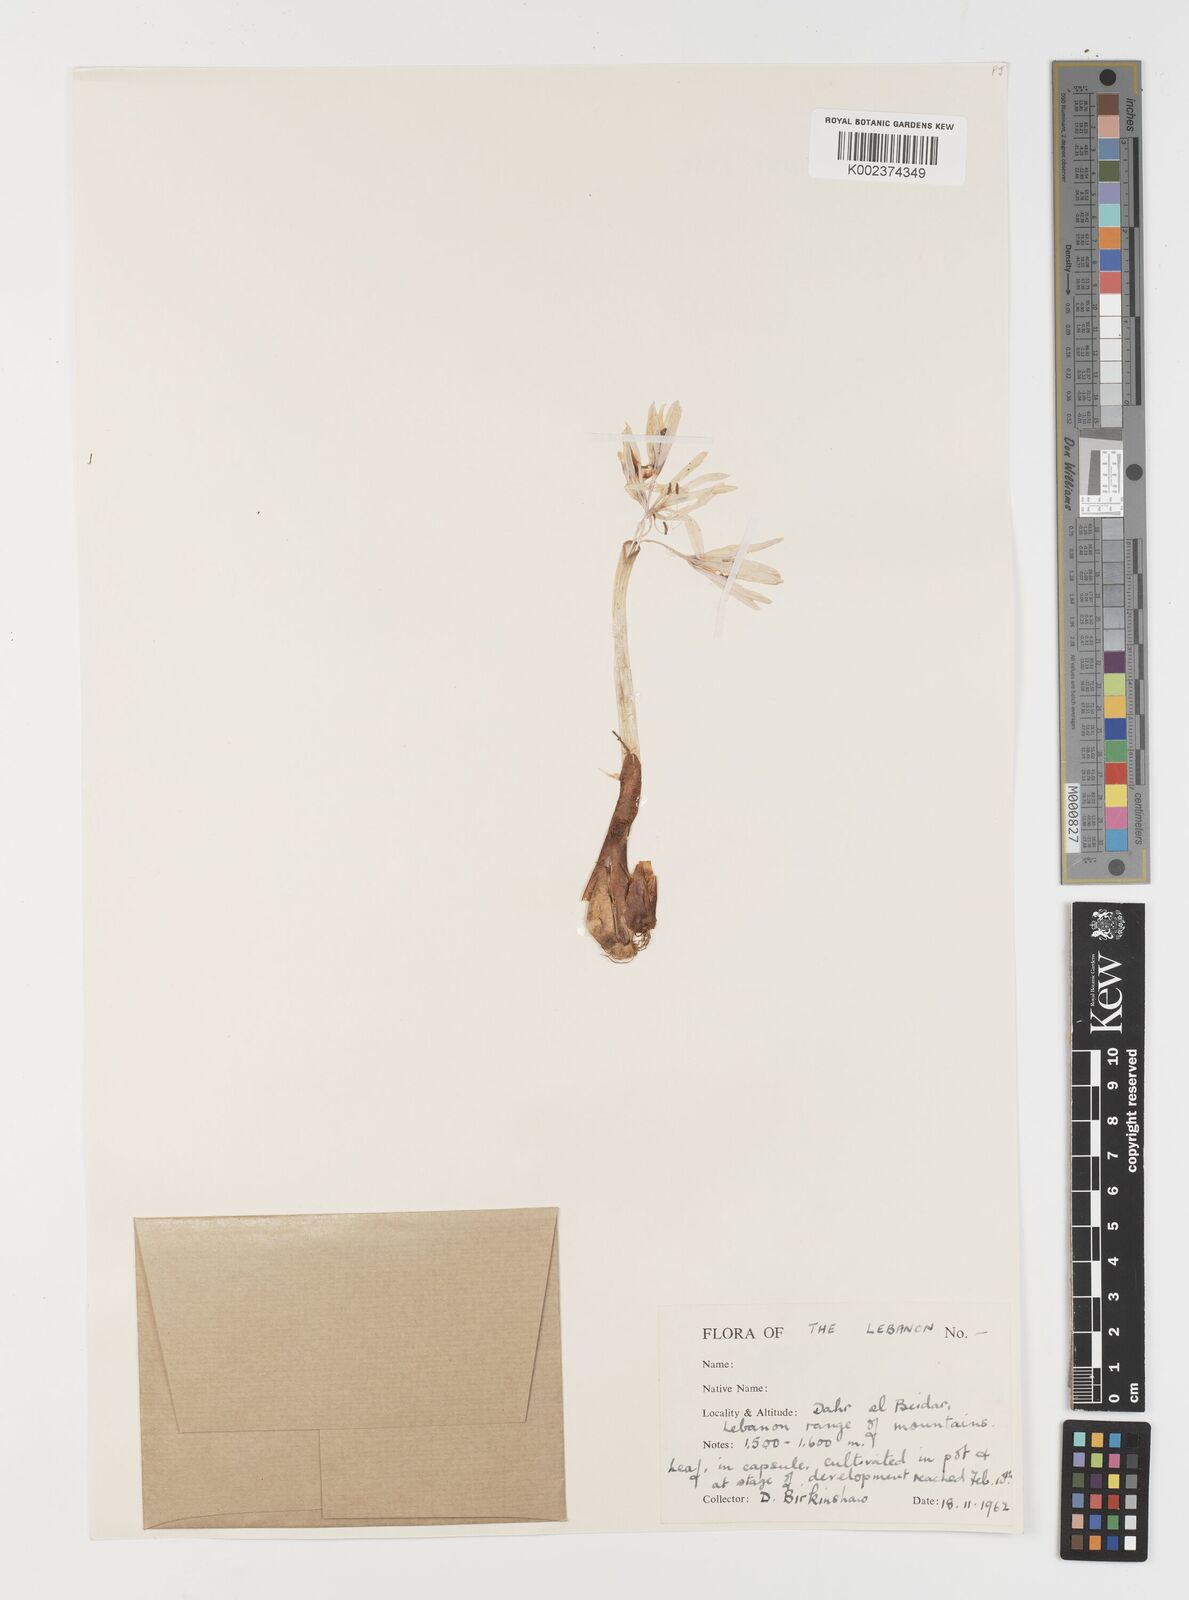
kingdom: Plantae
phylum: Tracheophyta
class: Liliopsida
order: Liliales
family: Colchicaceae
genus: Colchicum
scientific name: Colchicum
